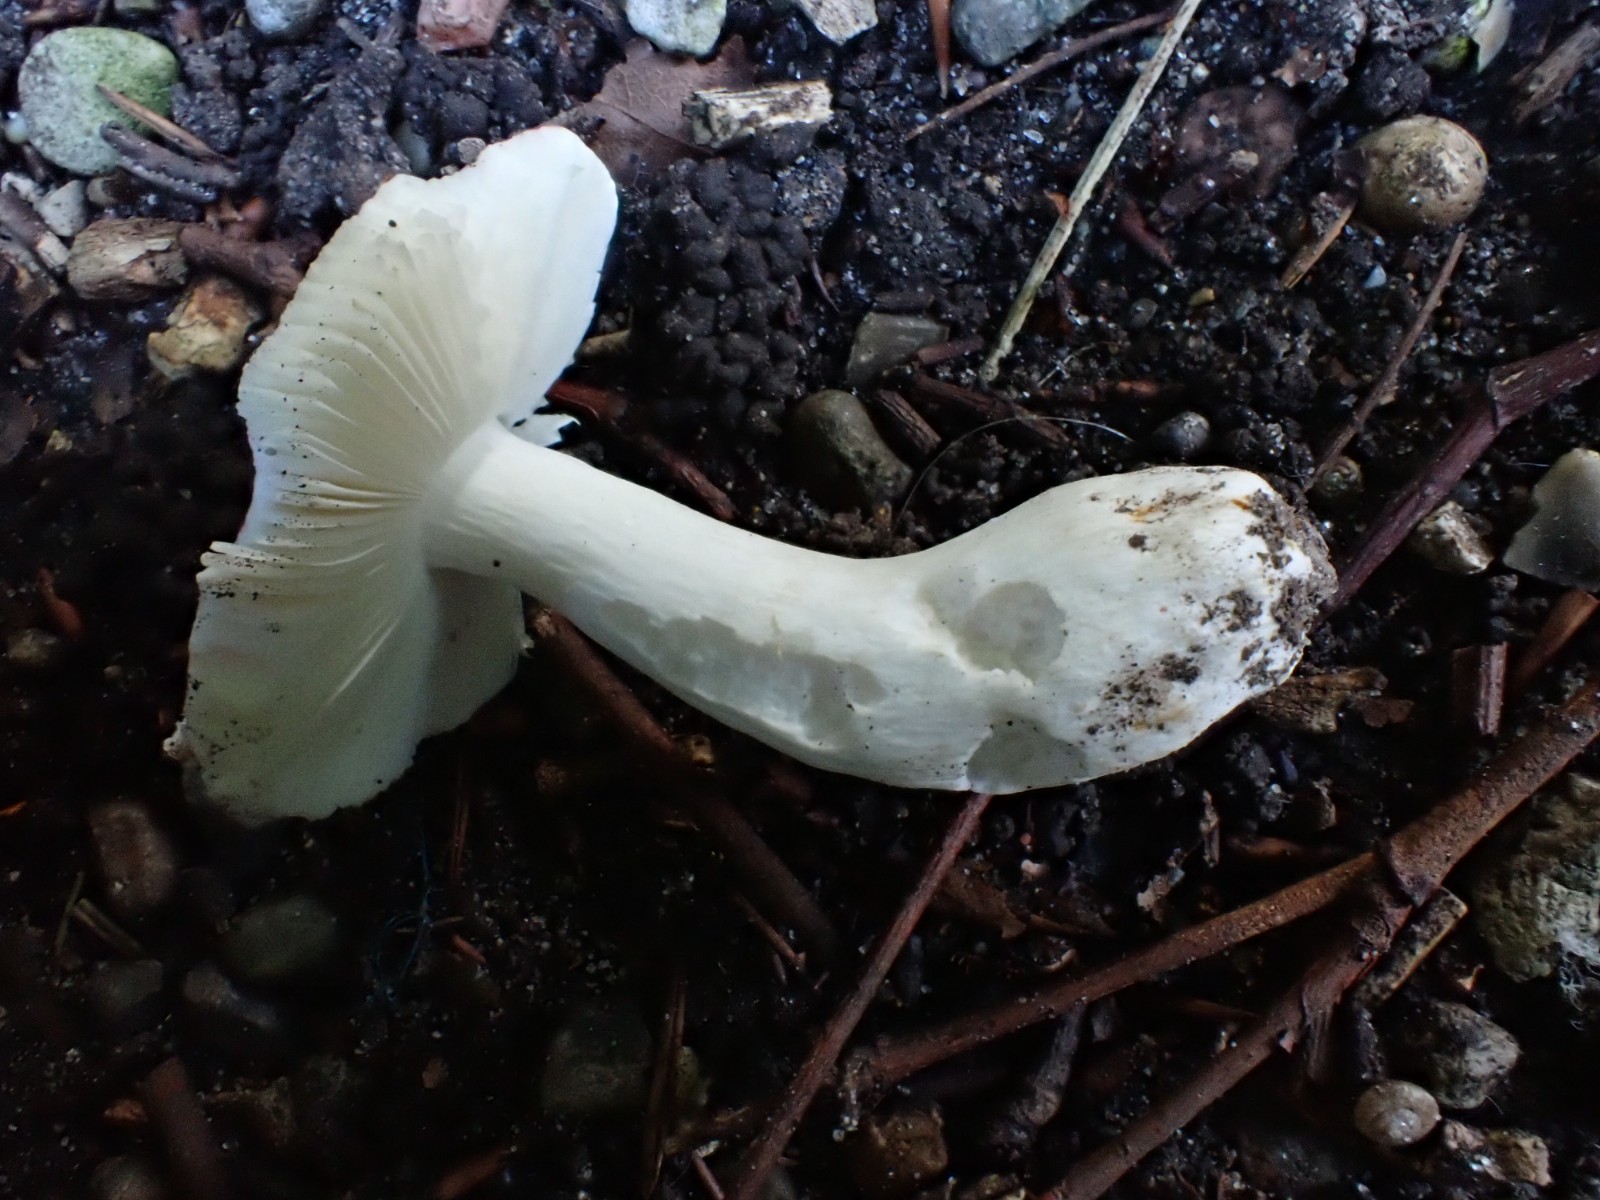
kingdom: Fungi
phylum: Basidiomycota
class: Agaricomycetes
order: Russulales
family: Russulaceae
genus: Russula
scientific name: Russula puellula
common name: gulnende skørhat
